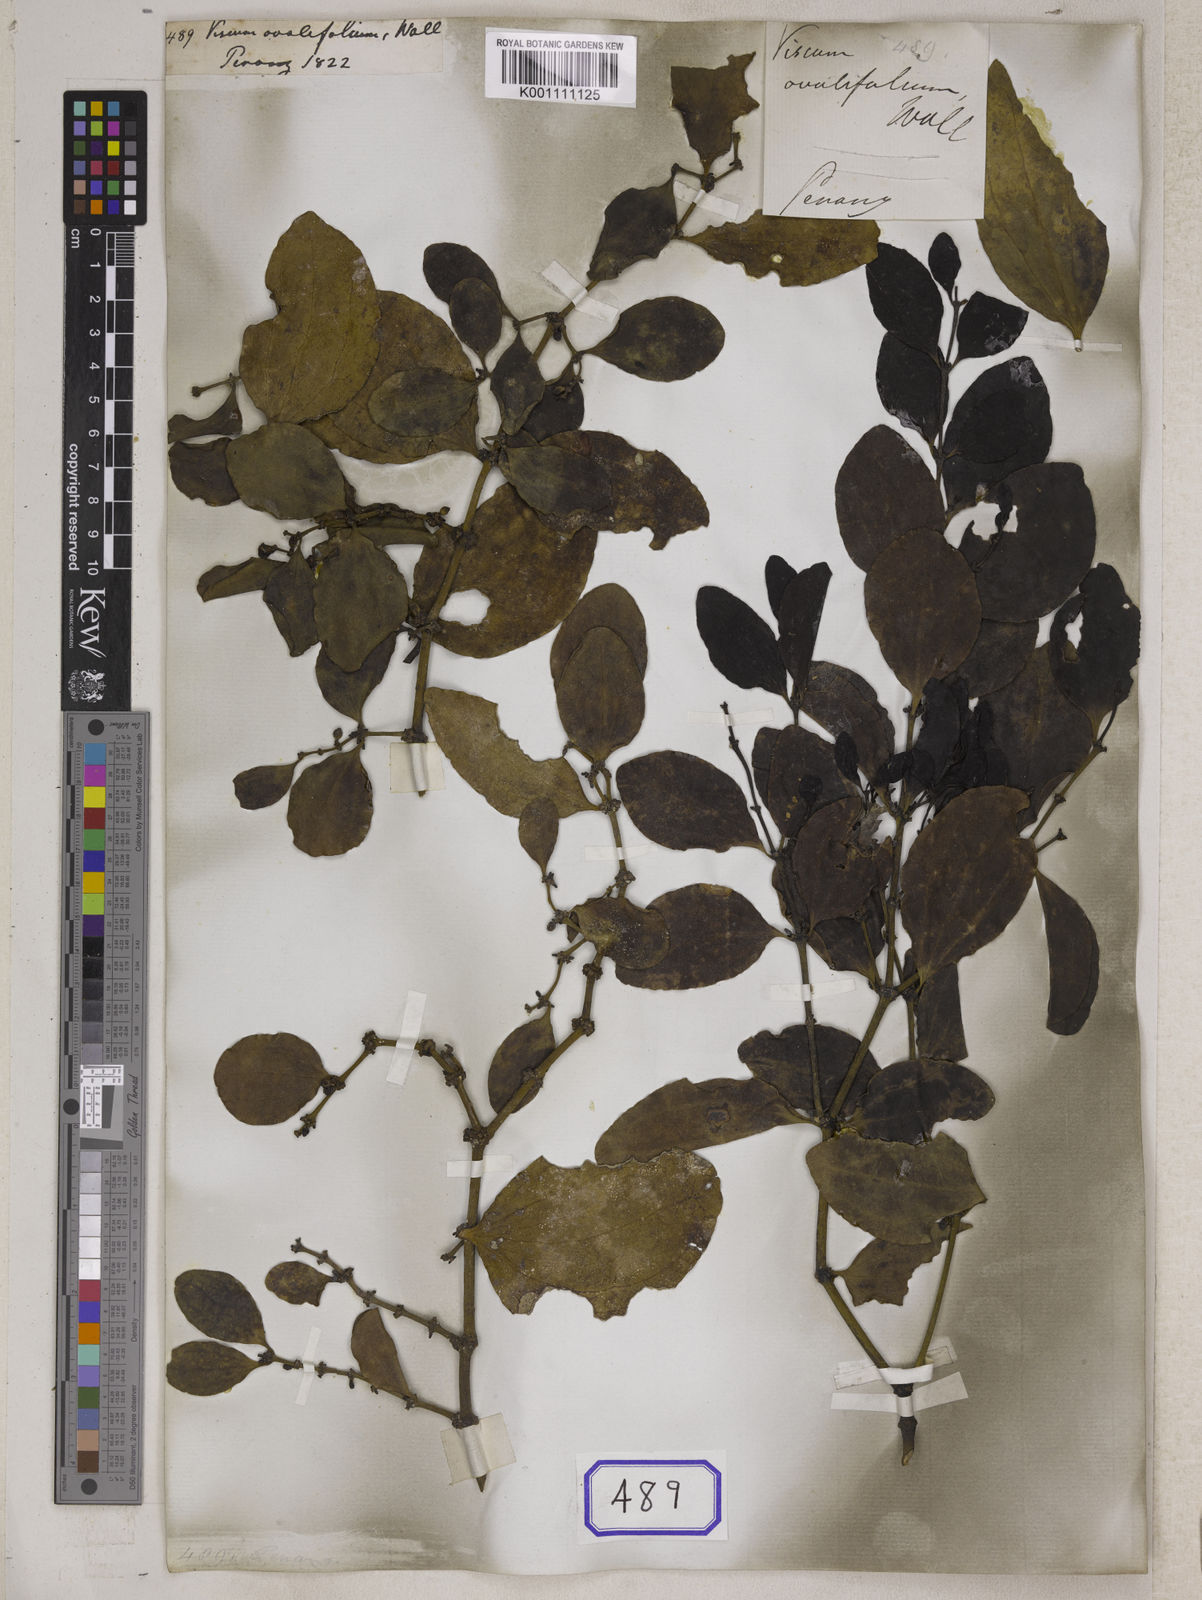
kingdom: Plantae
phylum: Tracheophyta
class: Magnoliopsida
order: Santalales
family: Viscaceae
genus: Viscum
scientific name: Viscum
